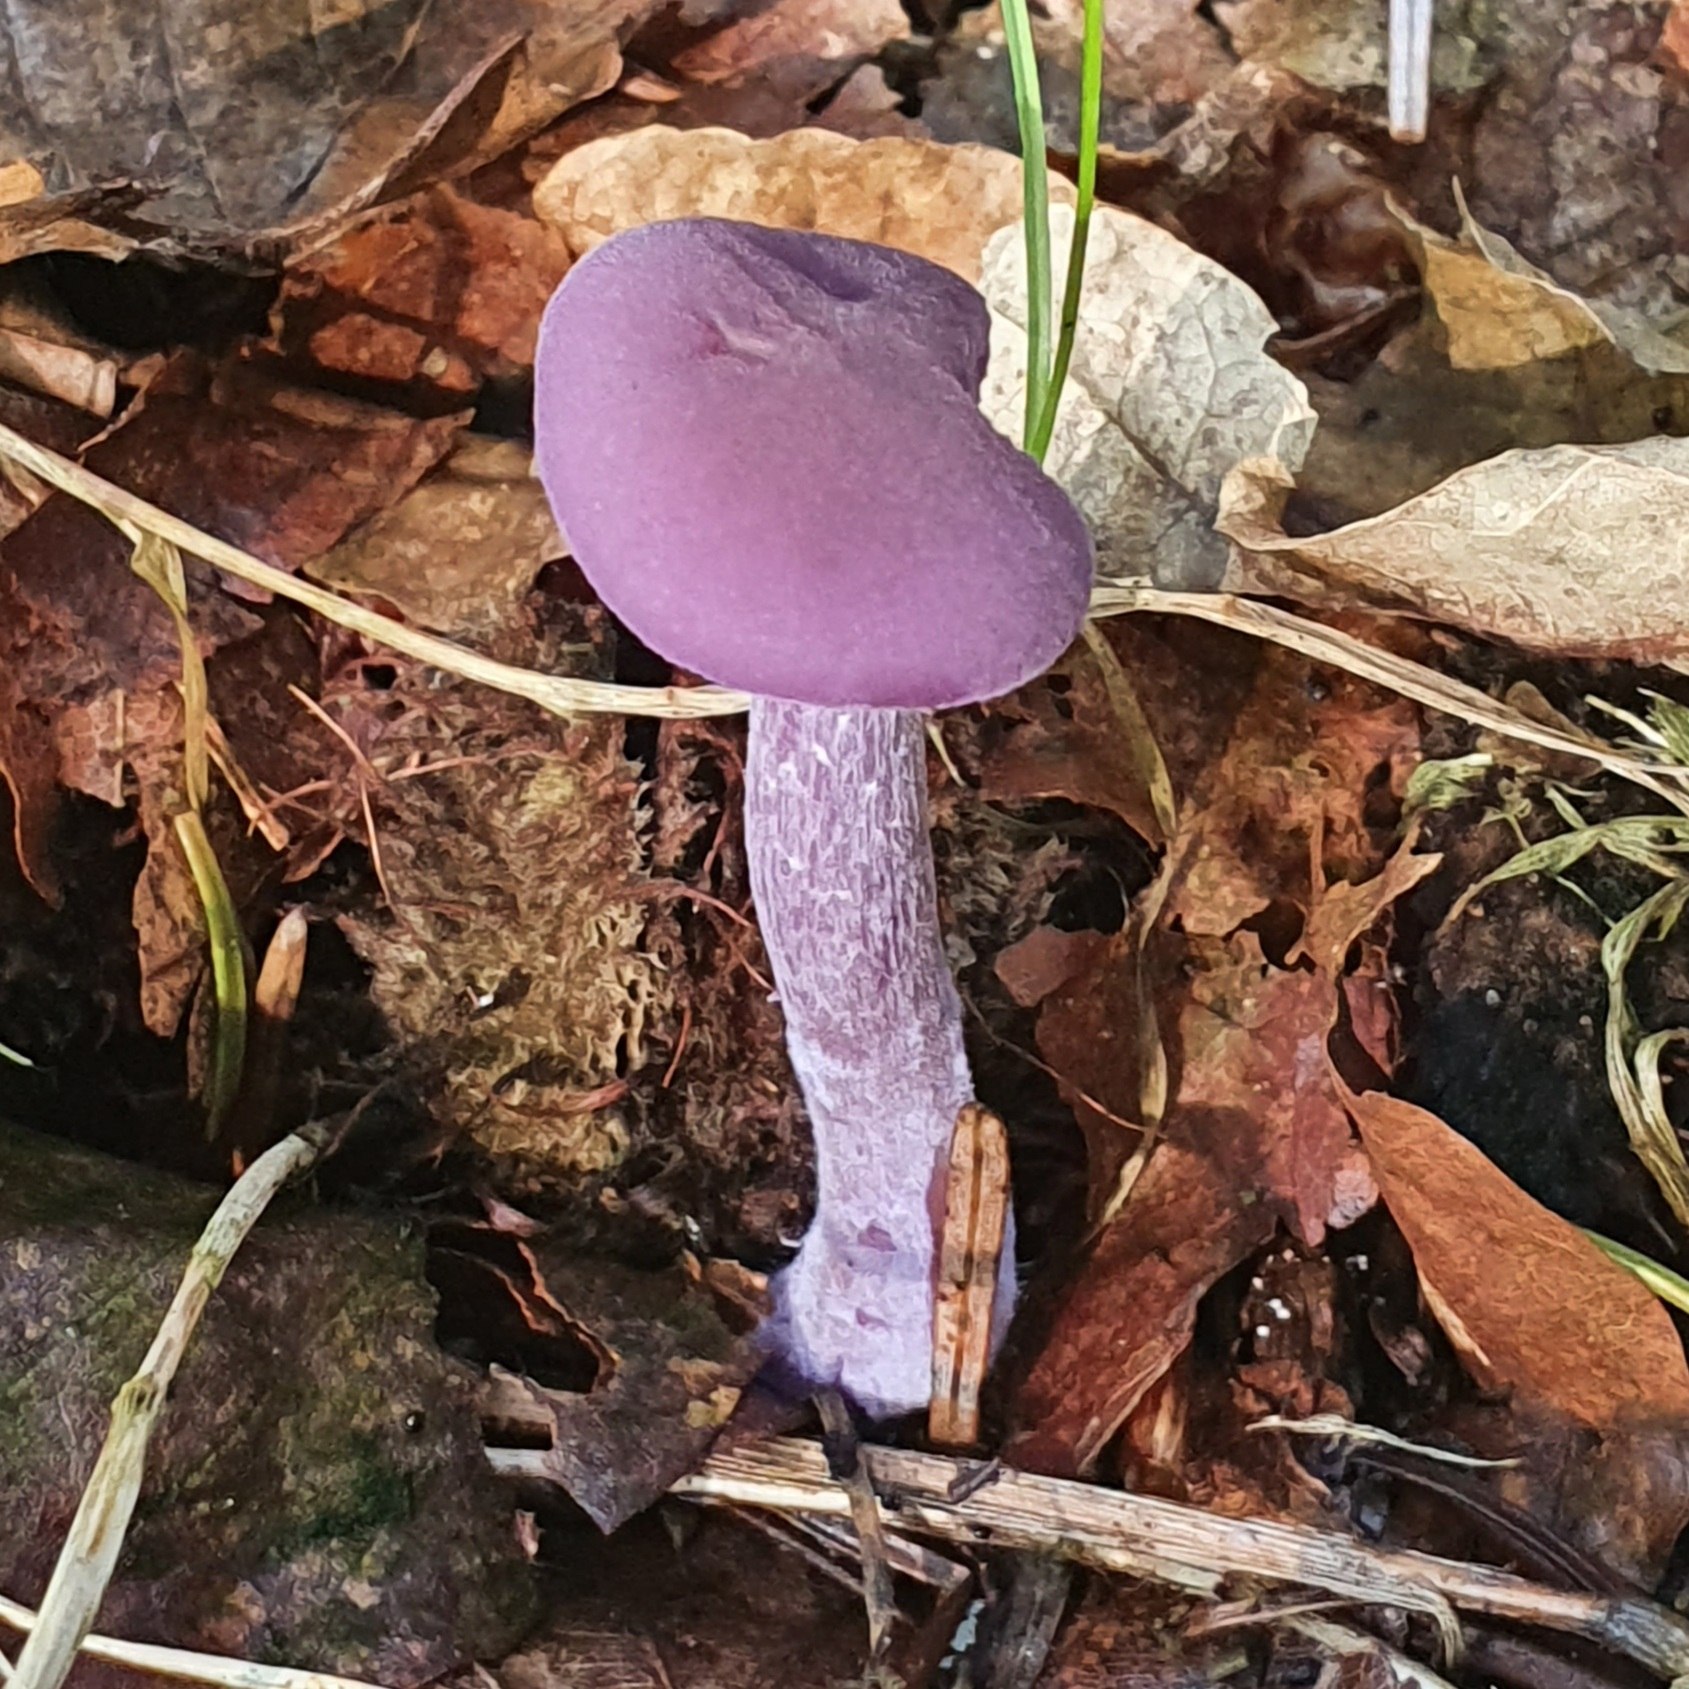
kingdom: Fungi
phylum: Basidiomycota
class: Agaricomycetes
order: Agaricales
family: Hydnangiaceae
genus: Laccaria
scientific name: Laccaria amethystina
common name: violet ametysthat
